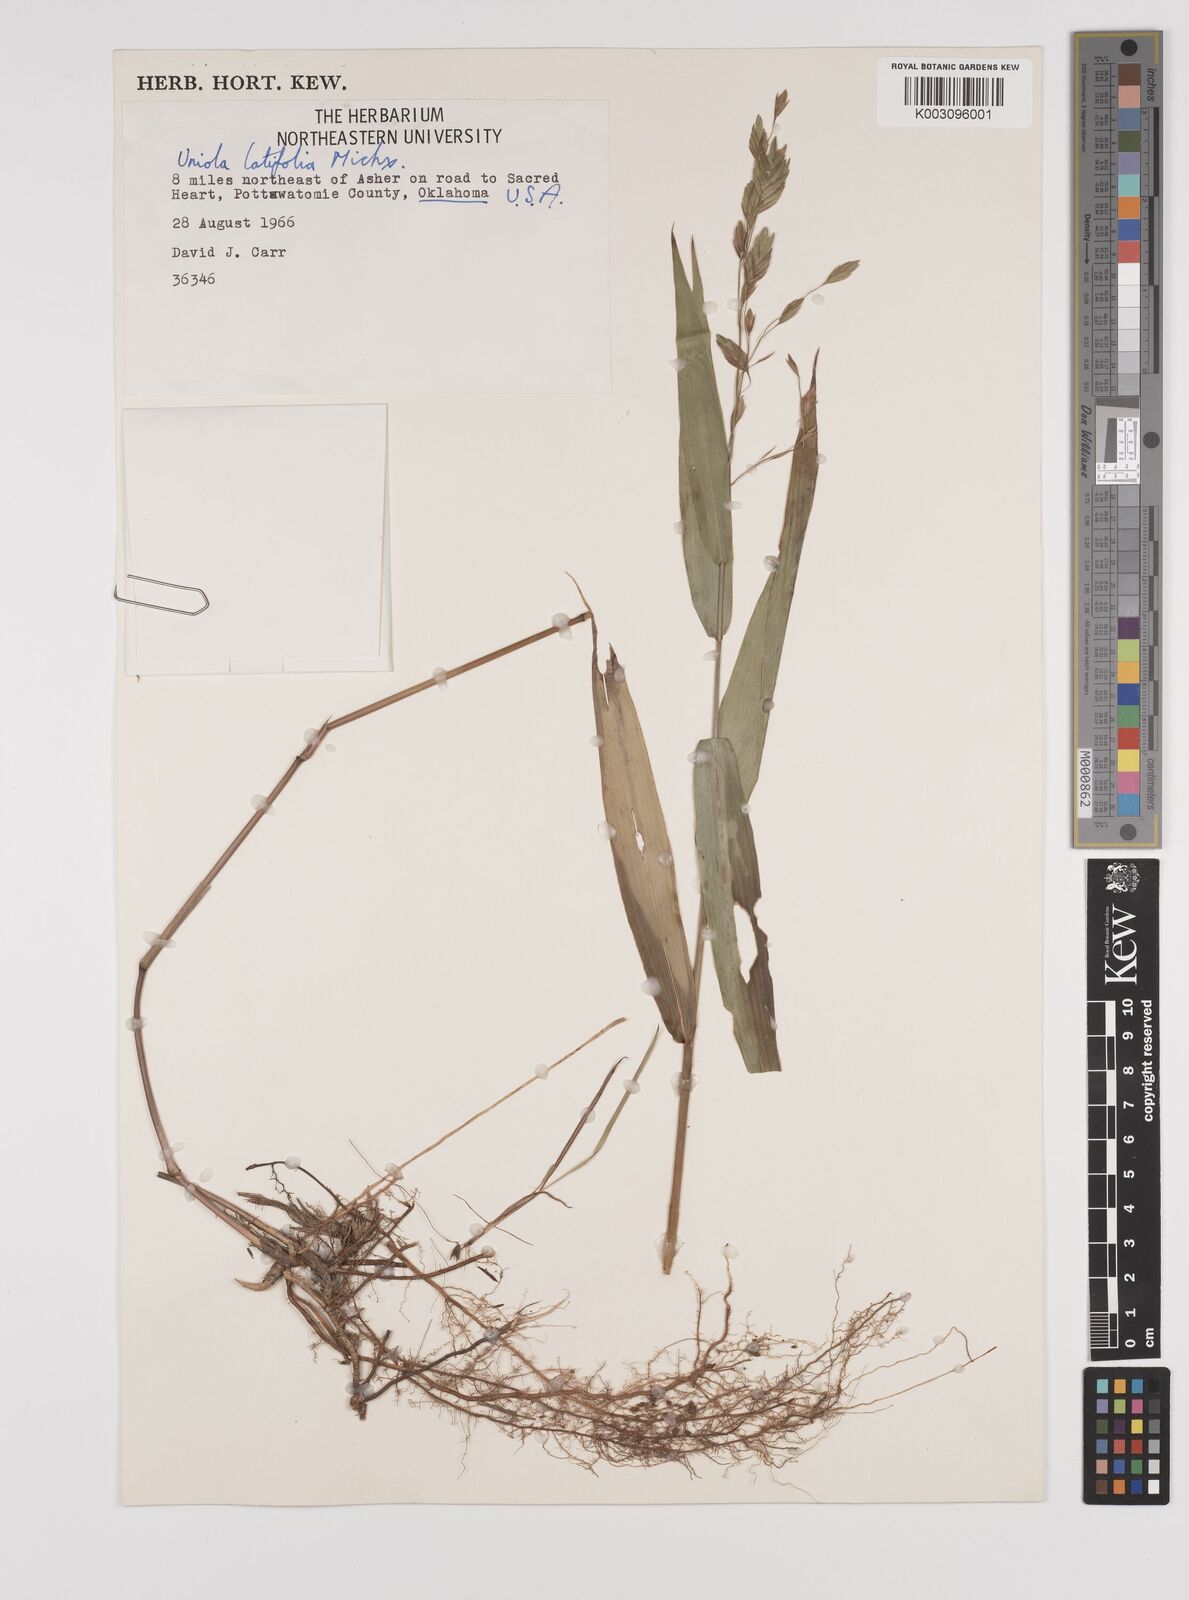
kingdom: Plantae
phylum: Tracheophyta
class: Liliopsida
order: Poales
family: Poaceae
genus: Chasmanthium
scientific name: Chasmanthium latifolium
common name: Broad-leaved chasmanthium
